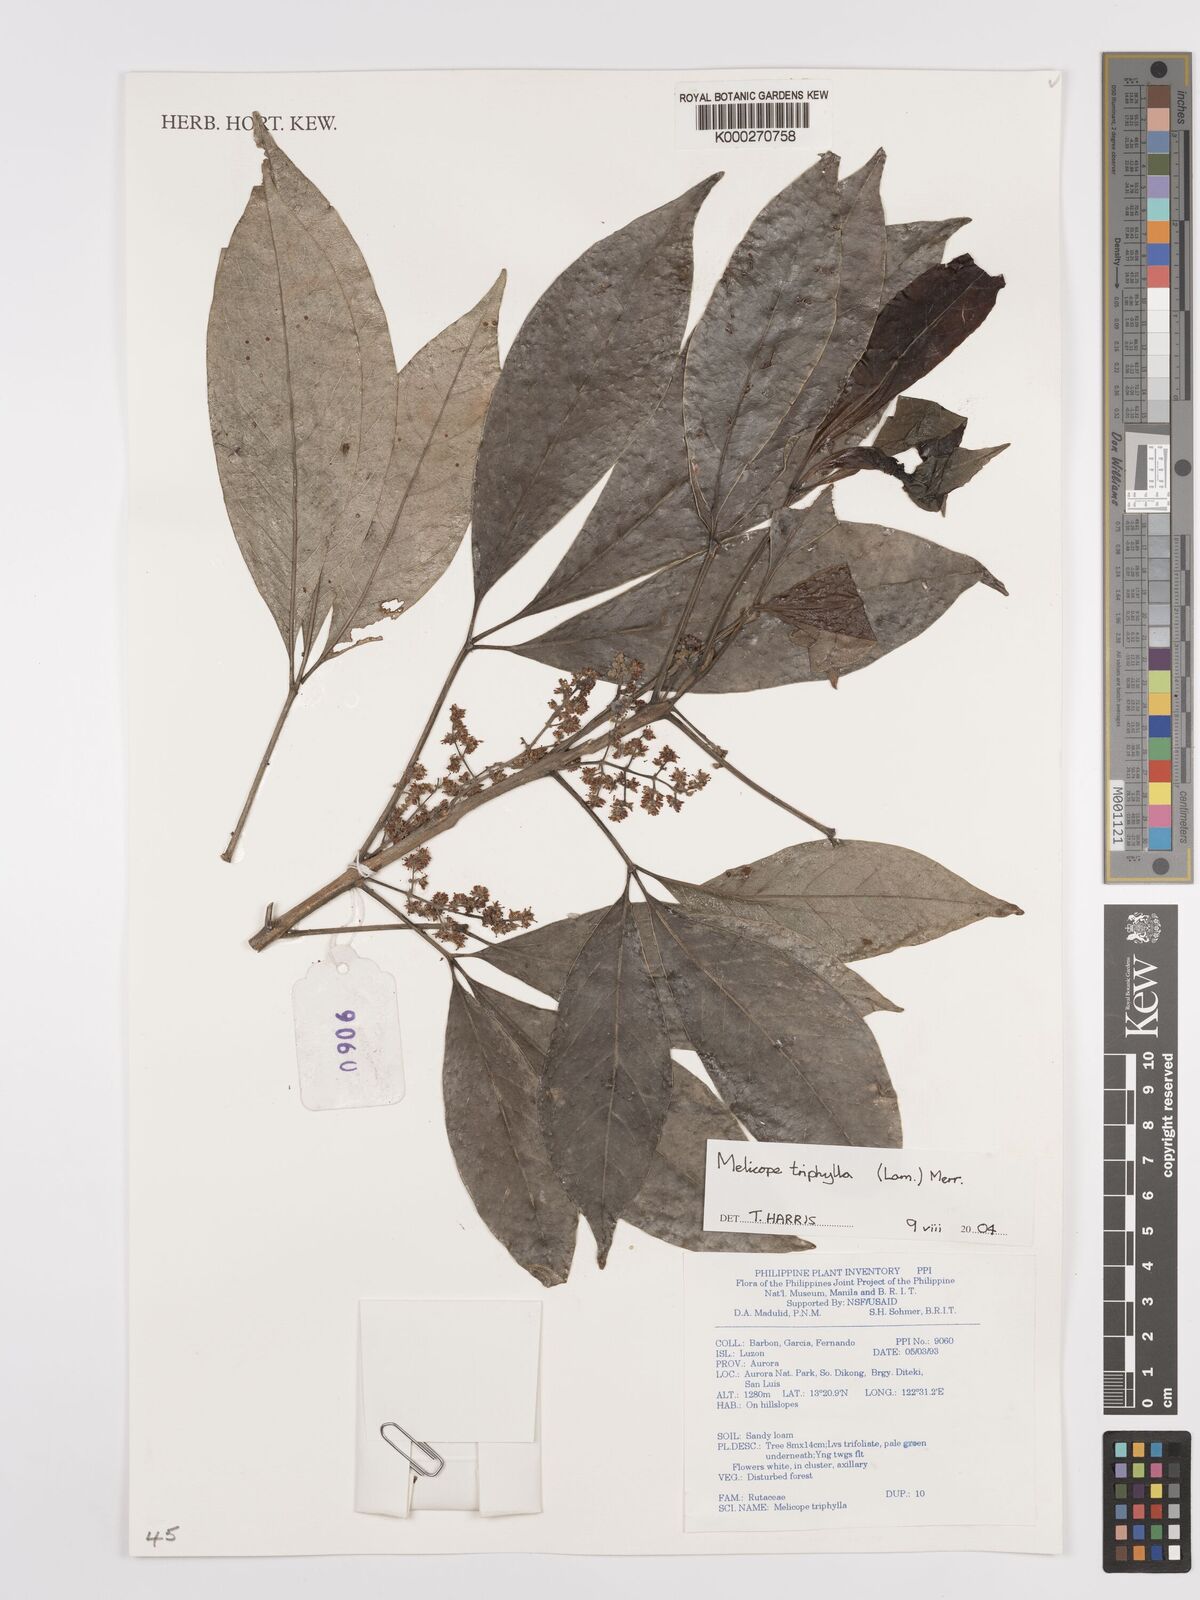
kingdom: Plantae
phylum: Tracheophyta
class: Magnoliopsida
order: Sapindales
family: Rutaceae
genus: Melicope
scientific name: Melicope triphylla
